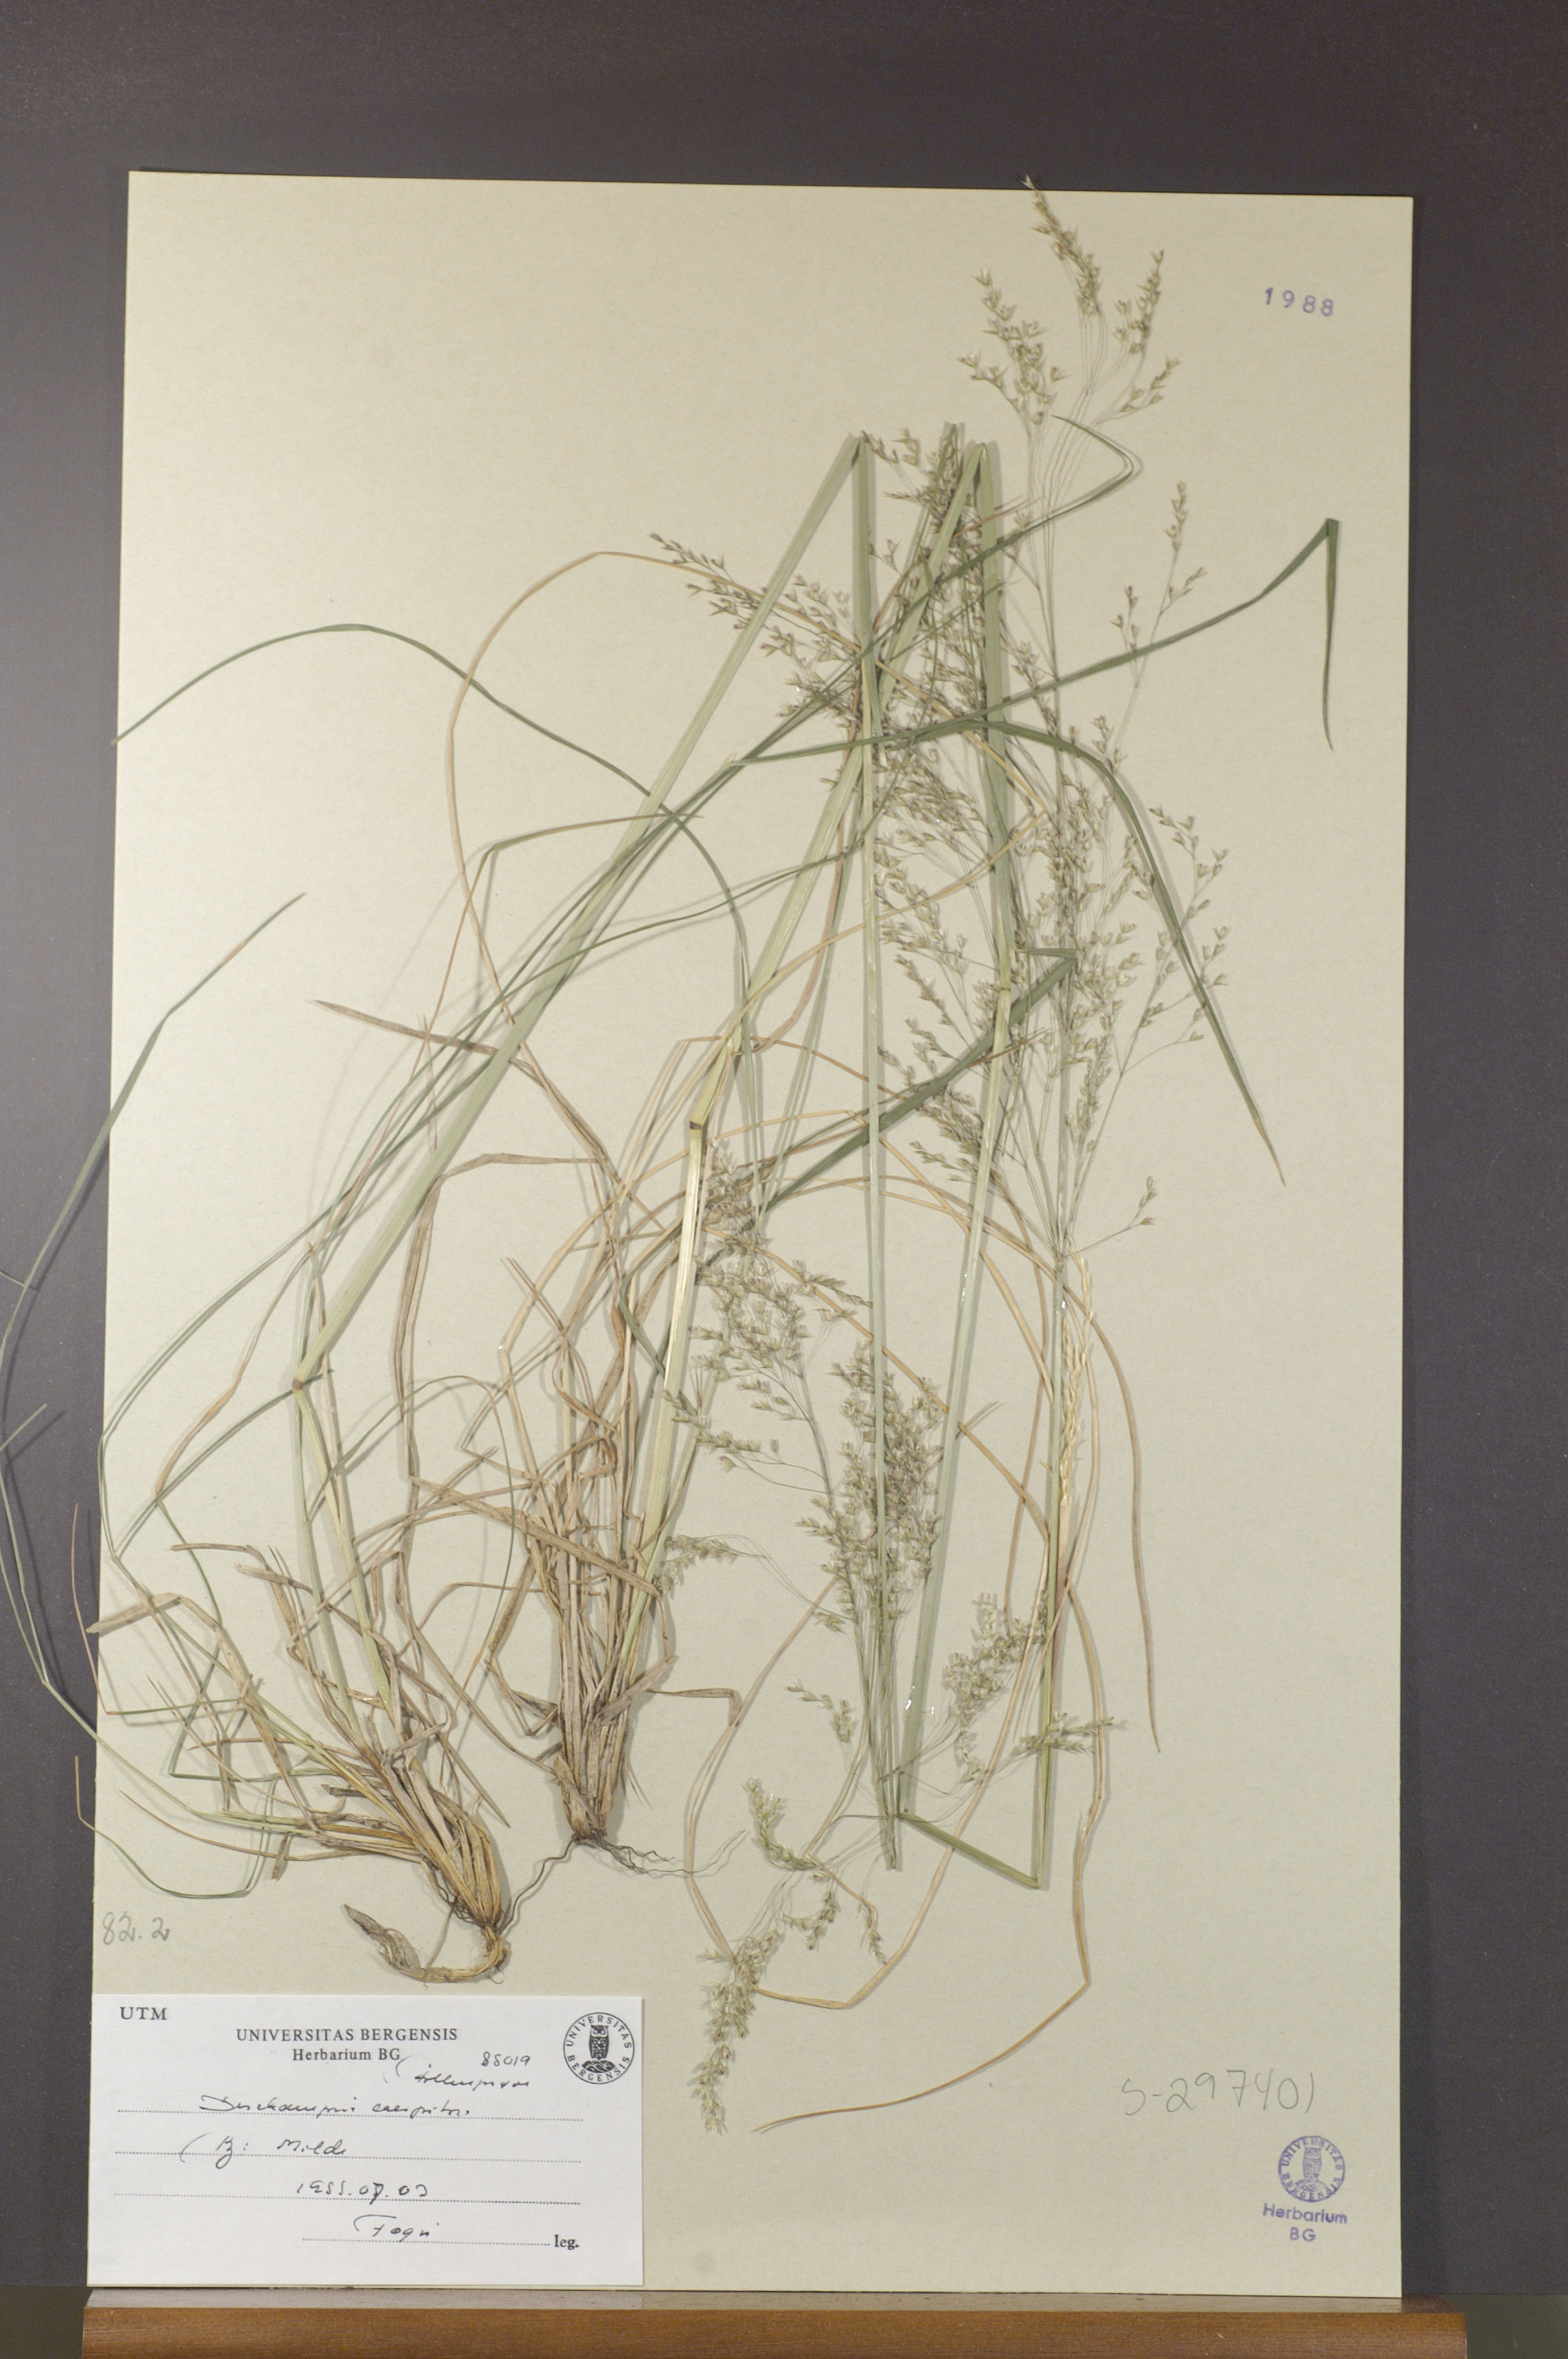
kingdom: Plantae
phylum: Tracheophyta
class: Liliopsida
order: Poales
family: Poaceae
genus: Deschampsia
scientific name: Deschampsia cespitosa
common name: Tufted hair-grass
